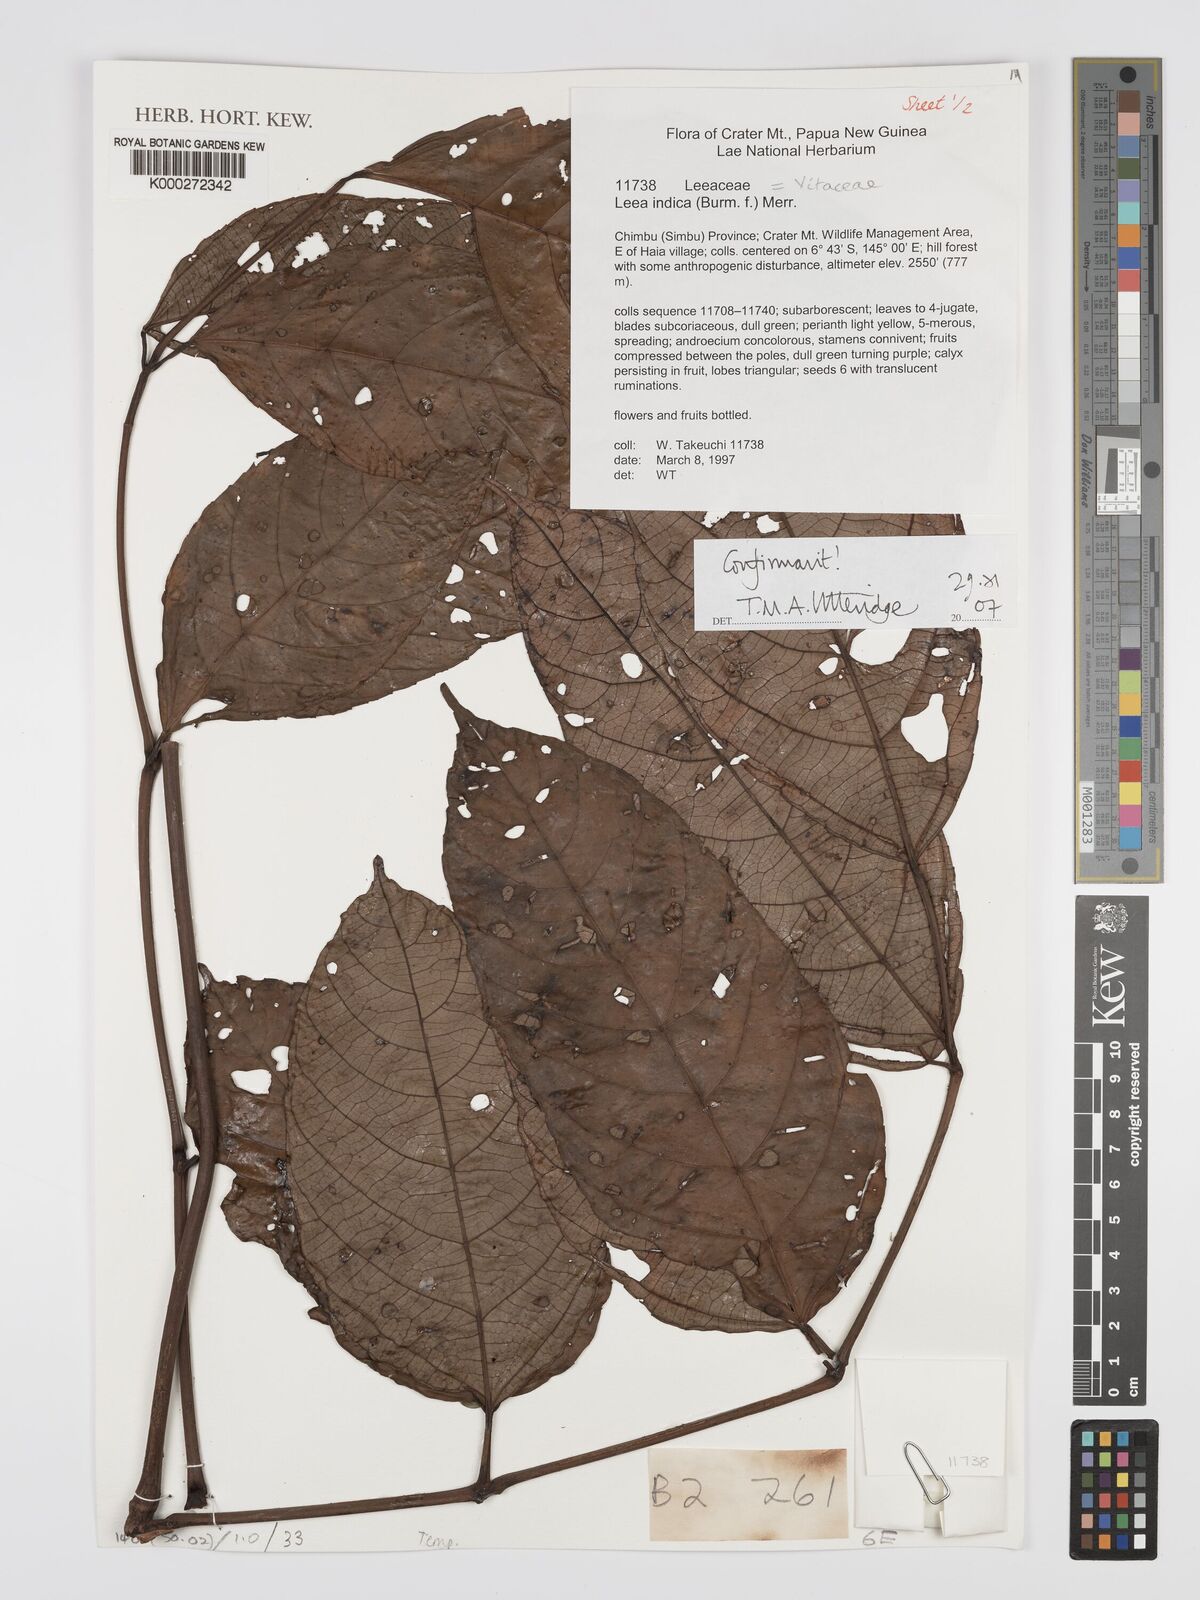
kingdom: Plantae
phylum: Tracheophyta
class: Magnoliopsida
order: Vitales
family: Vitaceae
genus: Leea
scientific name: Leea indica
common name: Bandicoot-berry
